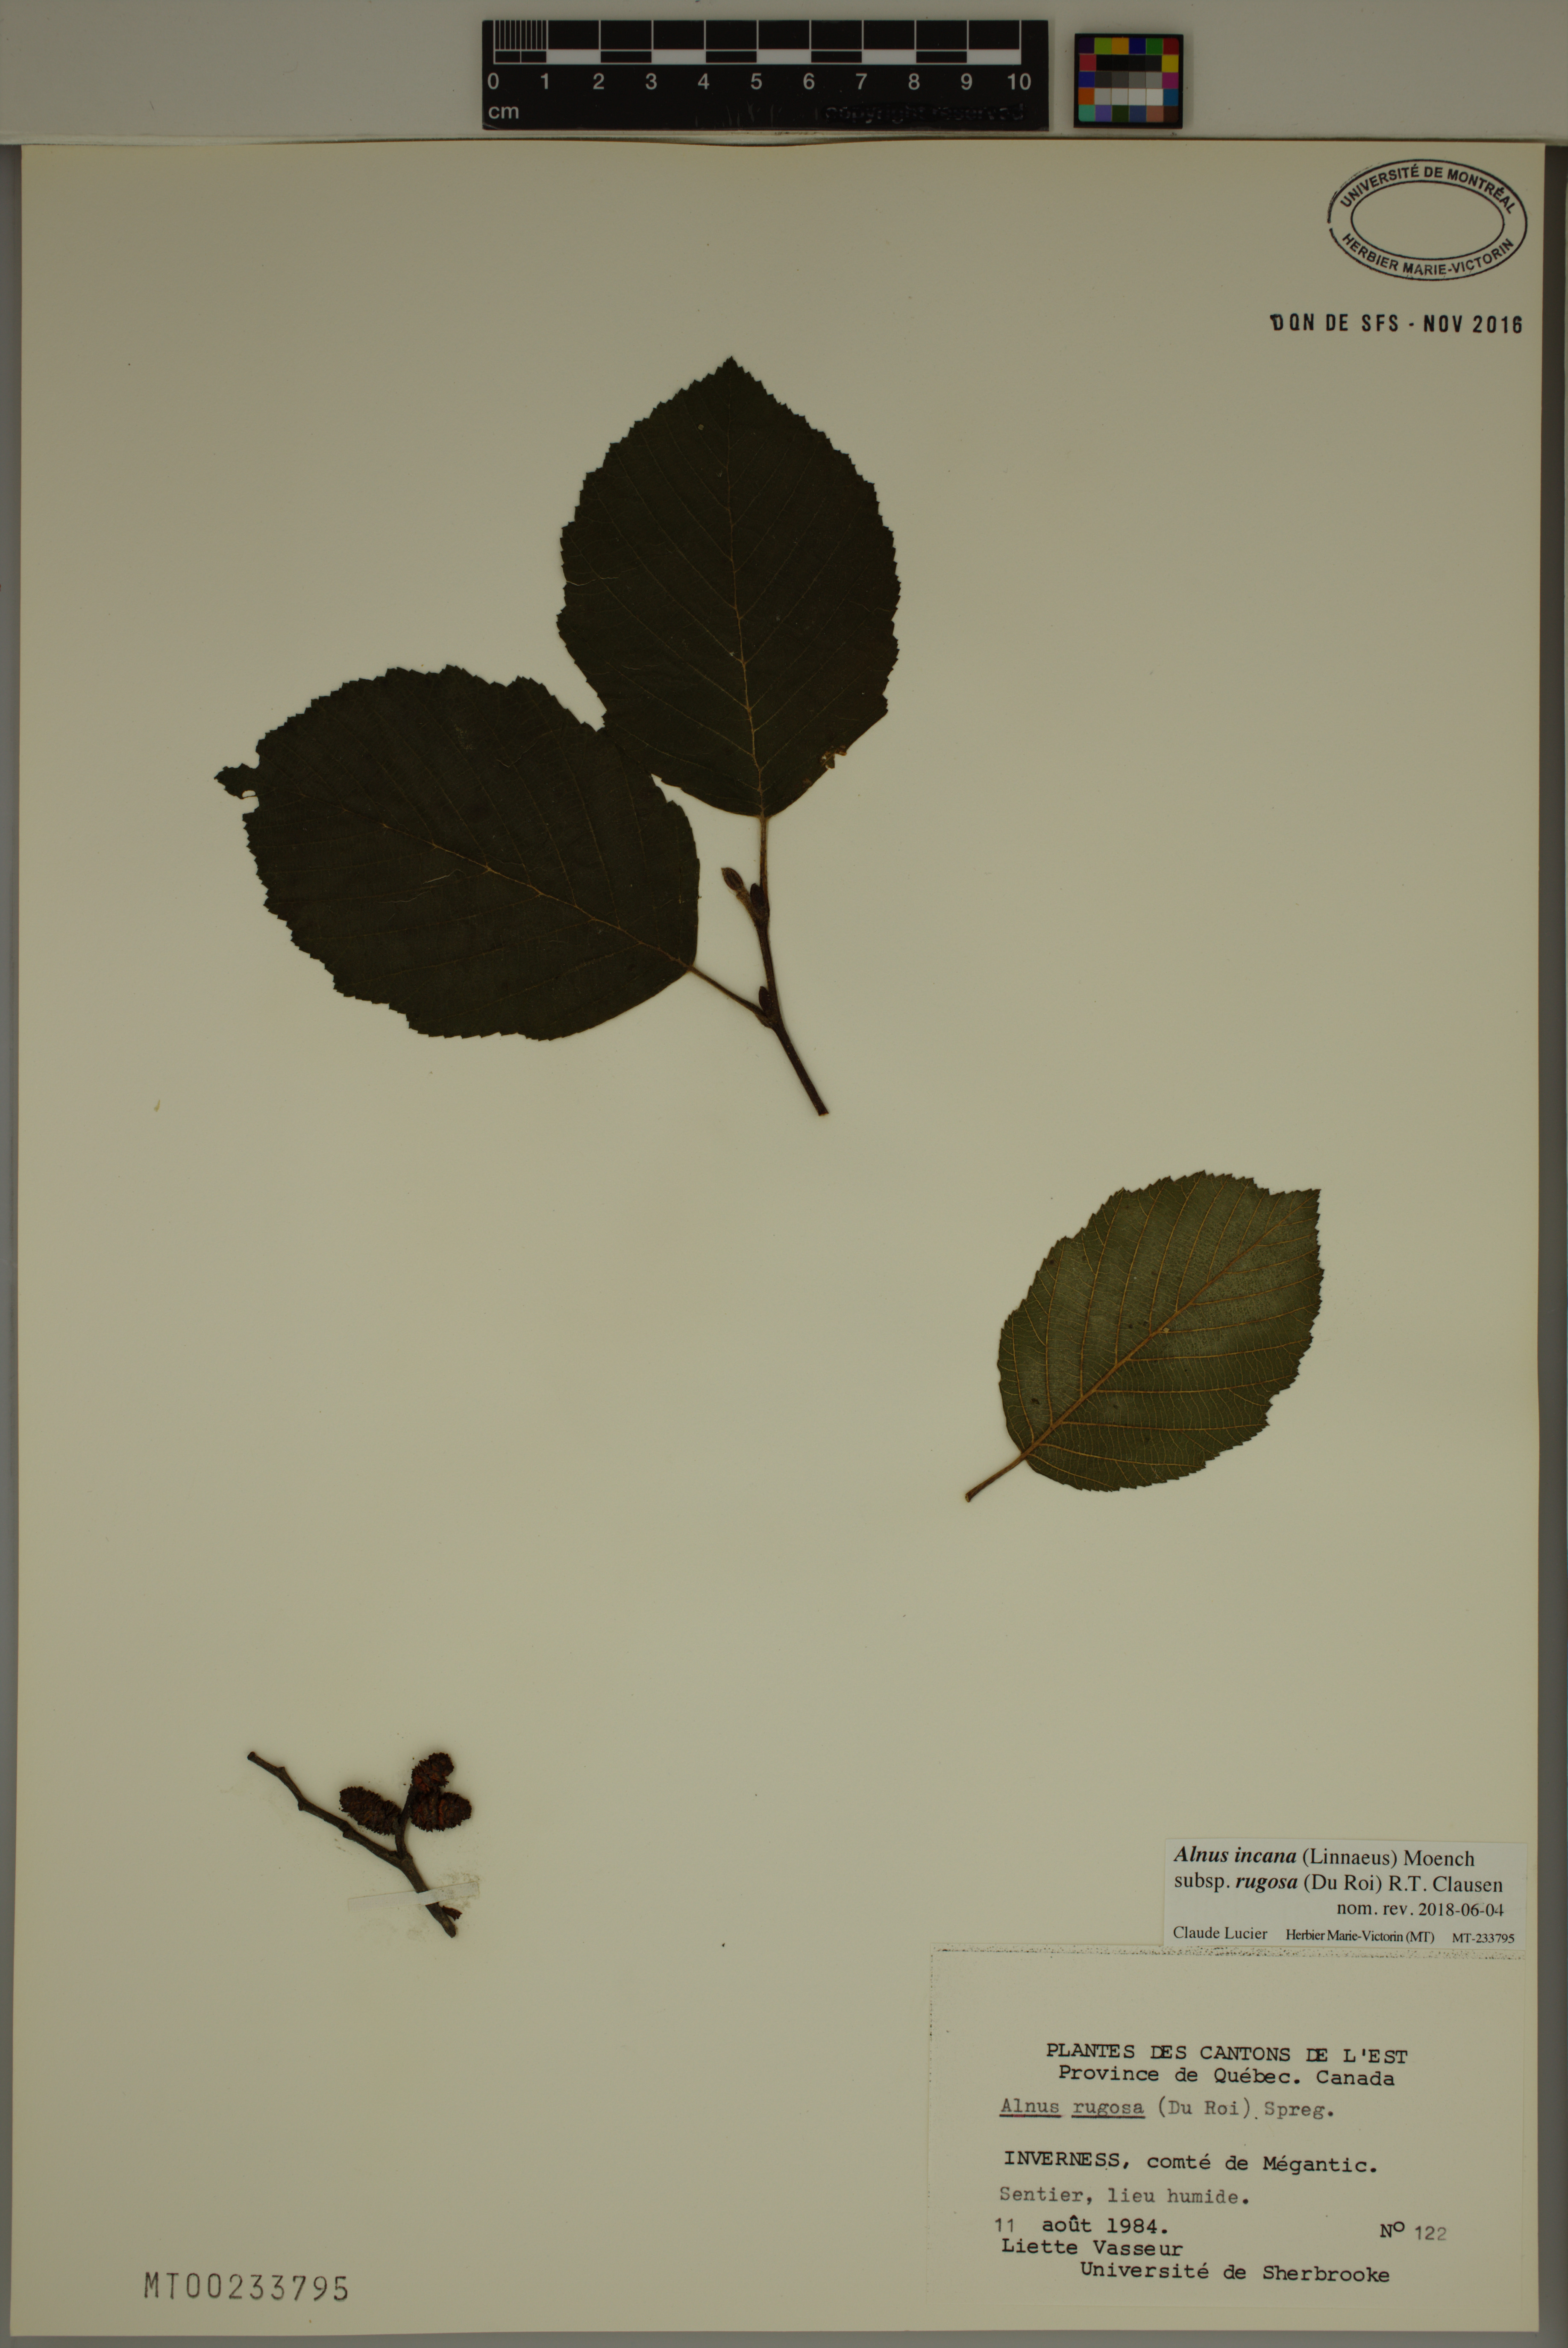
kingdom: Plantae
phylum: Tracheophyta
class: Magnoliopsida
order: Fagales
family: Betulaceae
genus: Alnus
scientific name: Alnus incana
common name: Grey alder
